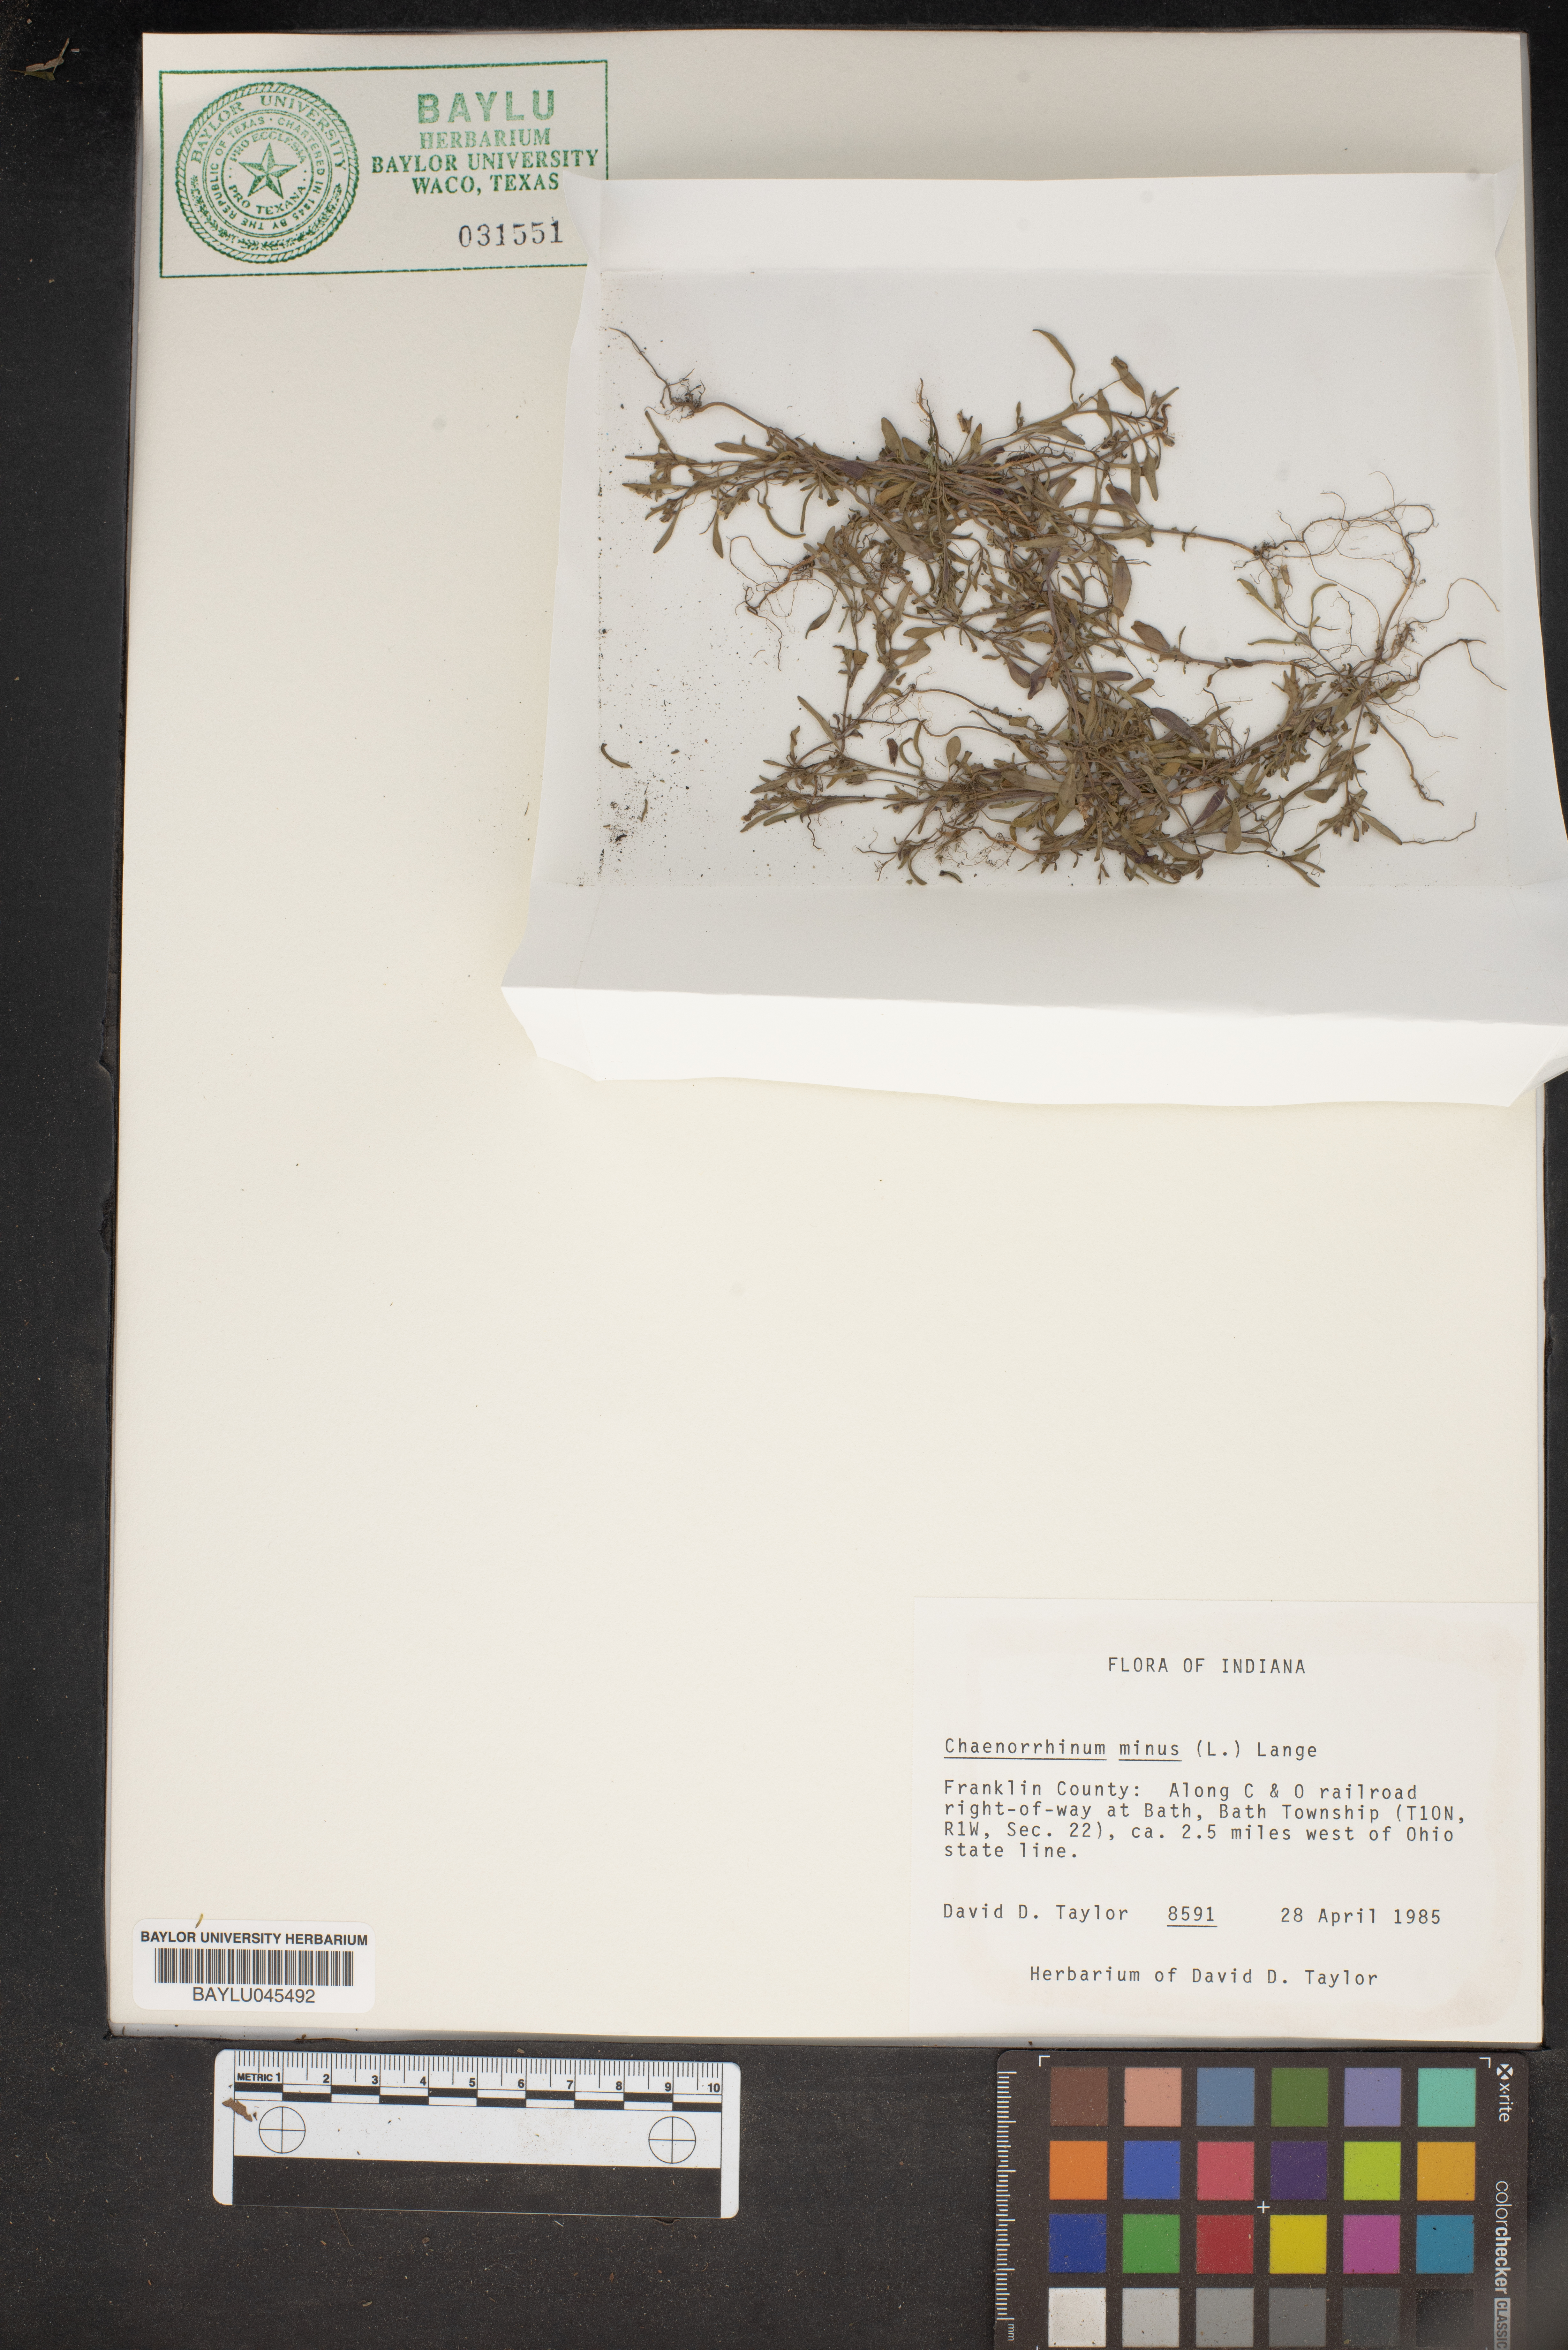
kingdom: Plantae
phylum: Tracheophyta
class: Magnoliopsida
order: Lamiales
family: Plantaginaceae
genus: Chaenorhinum
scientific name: Chaenorhinum minus
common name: Dwarf snapdragon
